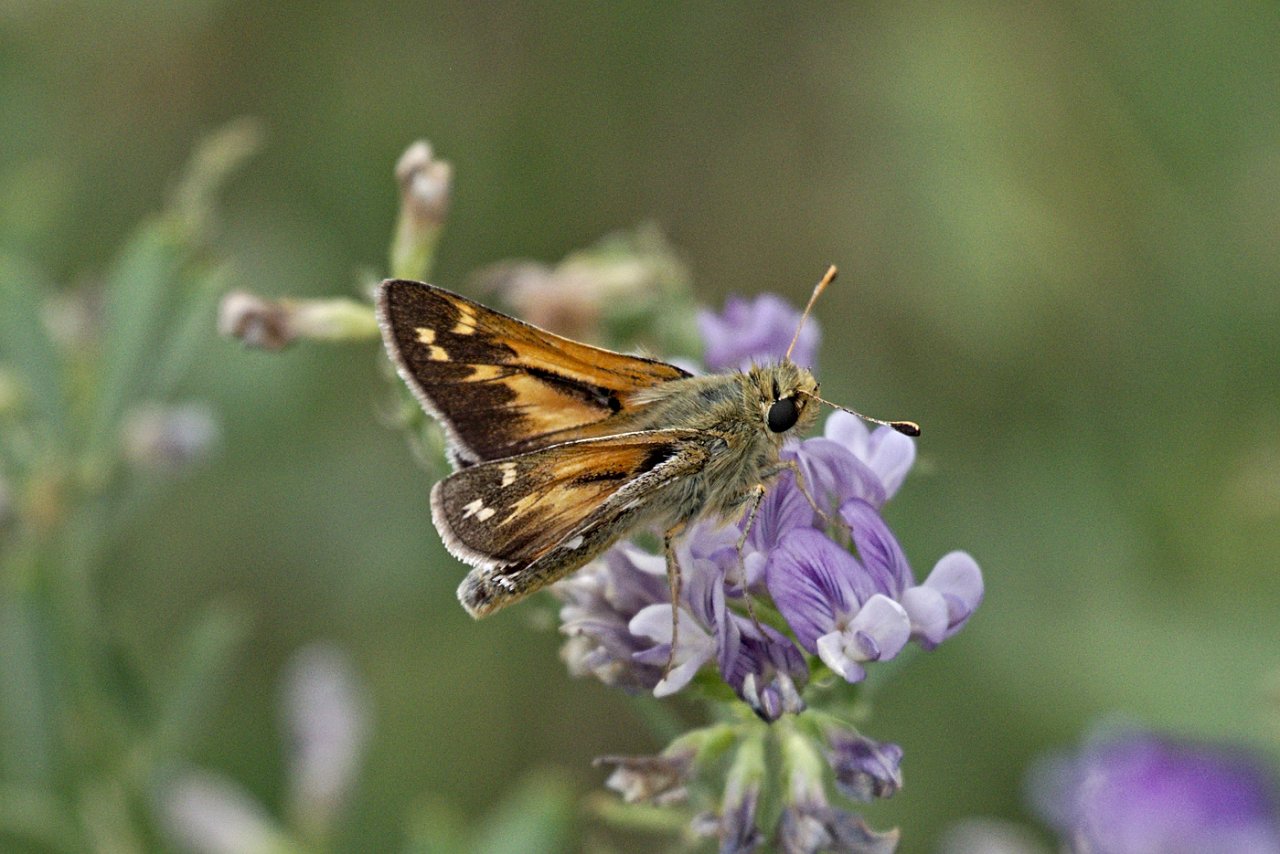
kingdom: Animalia
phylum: Arthropoda
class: Insecta
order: Lepidoptera
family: Hesperiidae
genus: Polites
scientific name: Polites
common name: Long Dash Skipper
